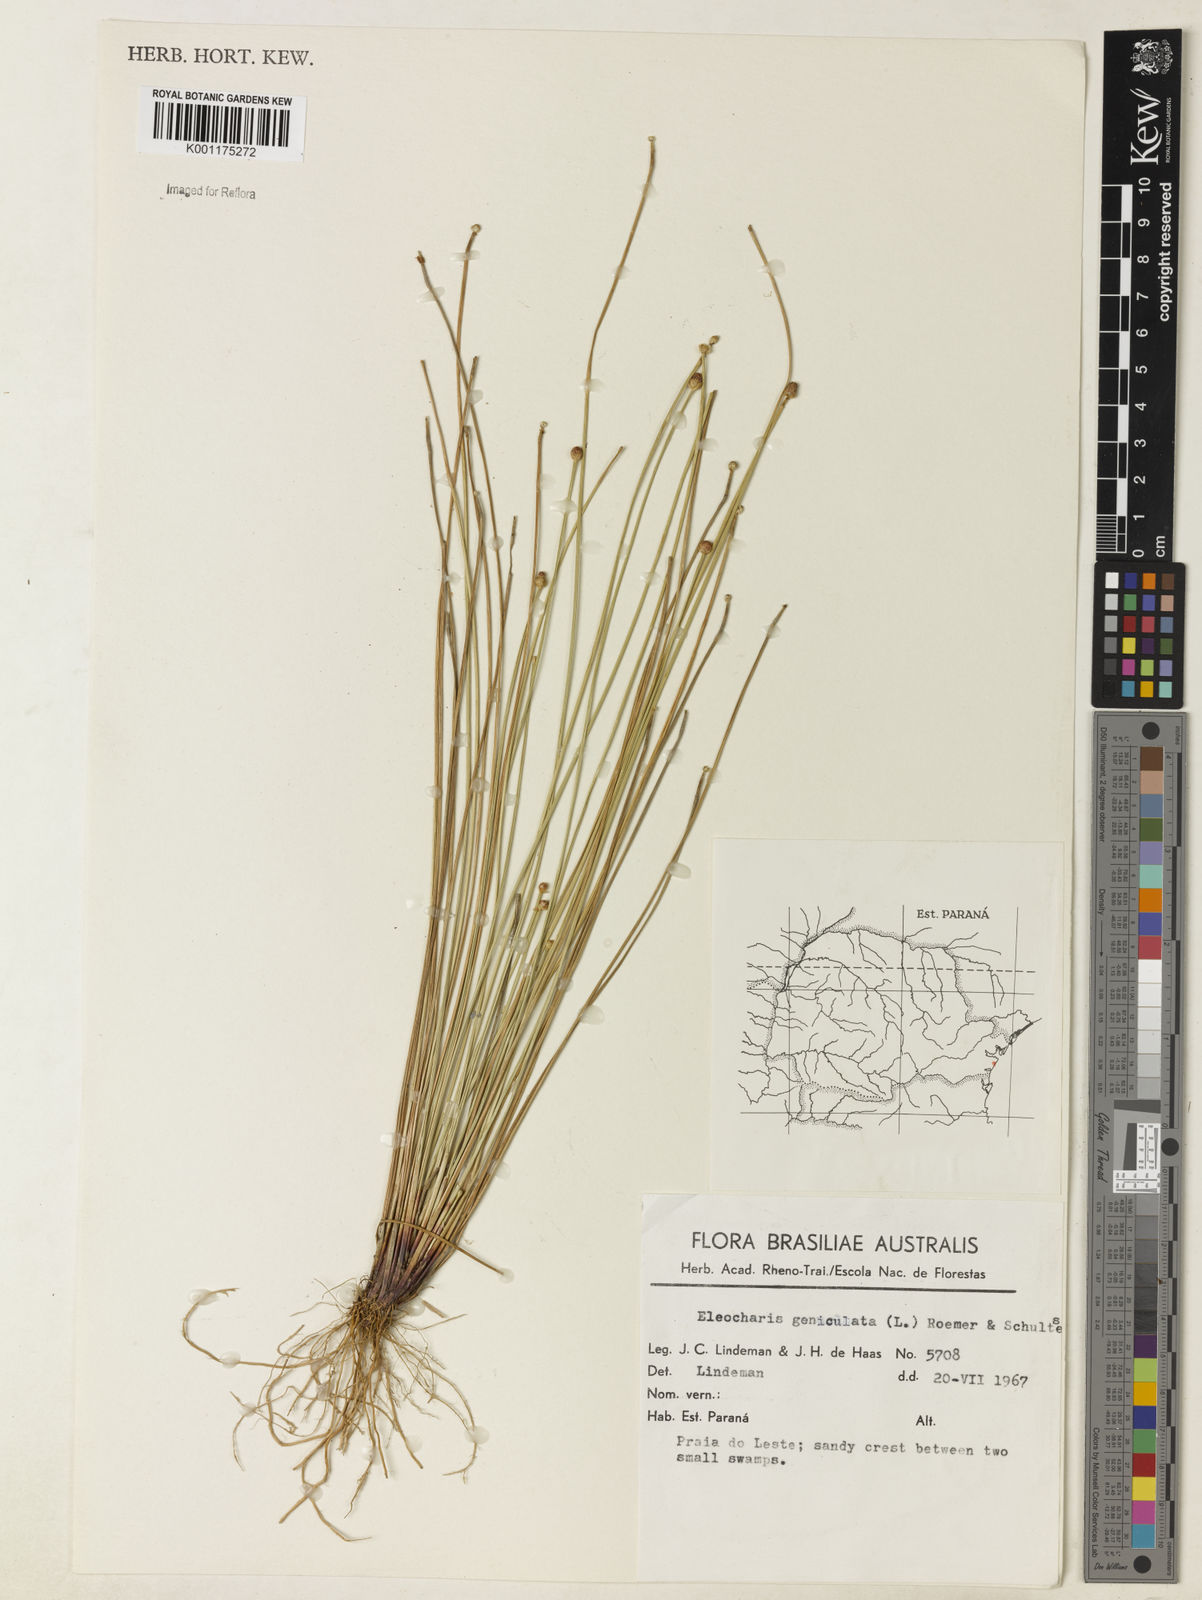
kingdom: Plantae
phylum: Tracheophyta
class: Liliopsida
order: Poales
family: Cyperaceae
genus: Eleocharis
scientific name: Eleocharis geniculata
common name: Canada spikesedge
